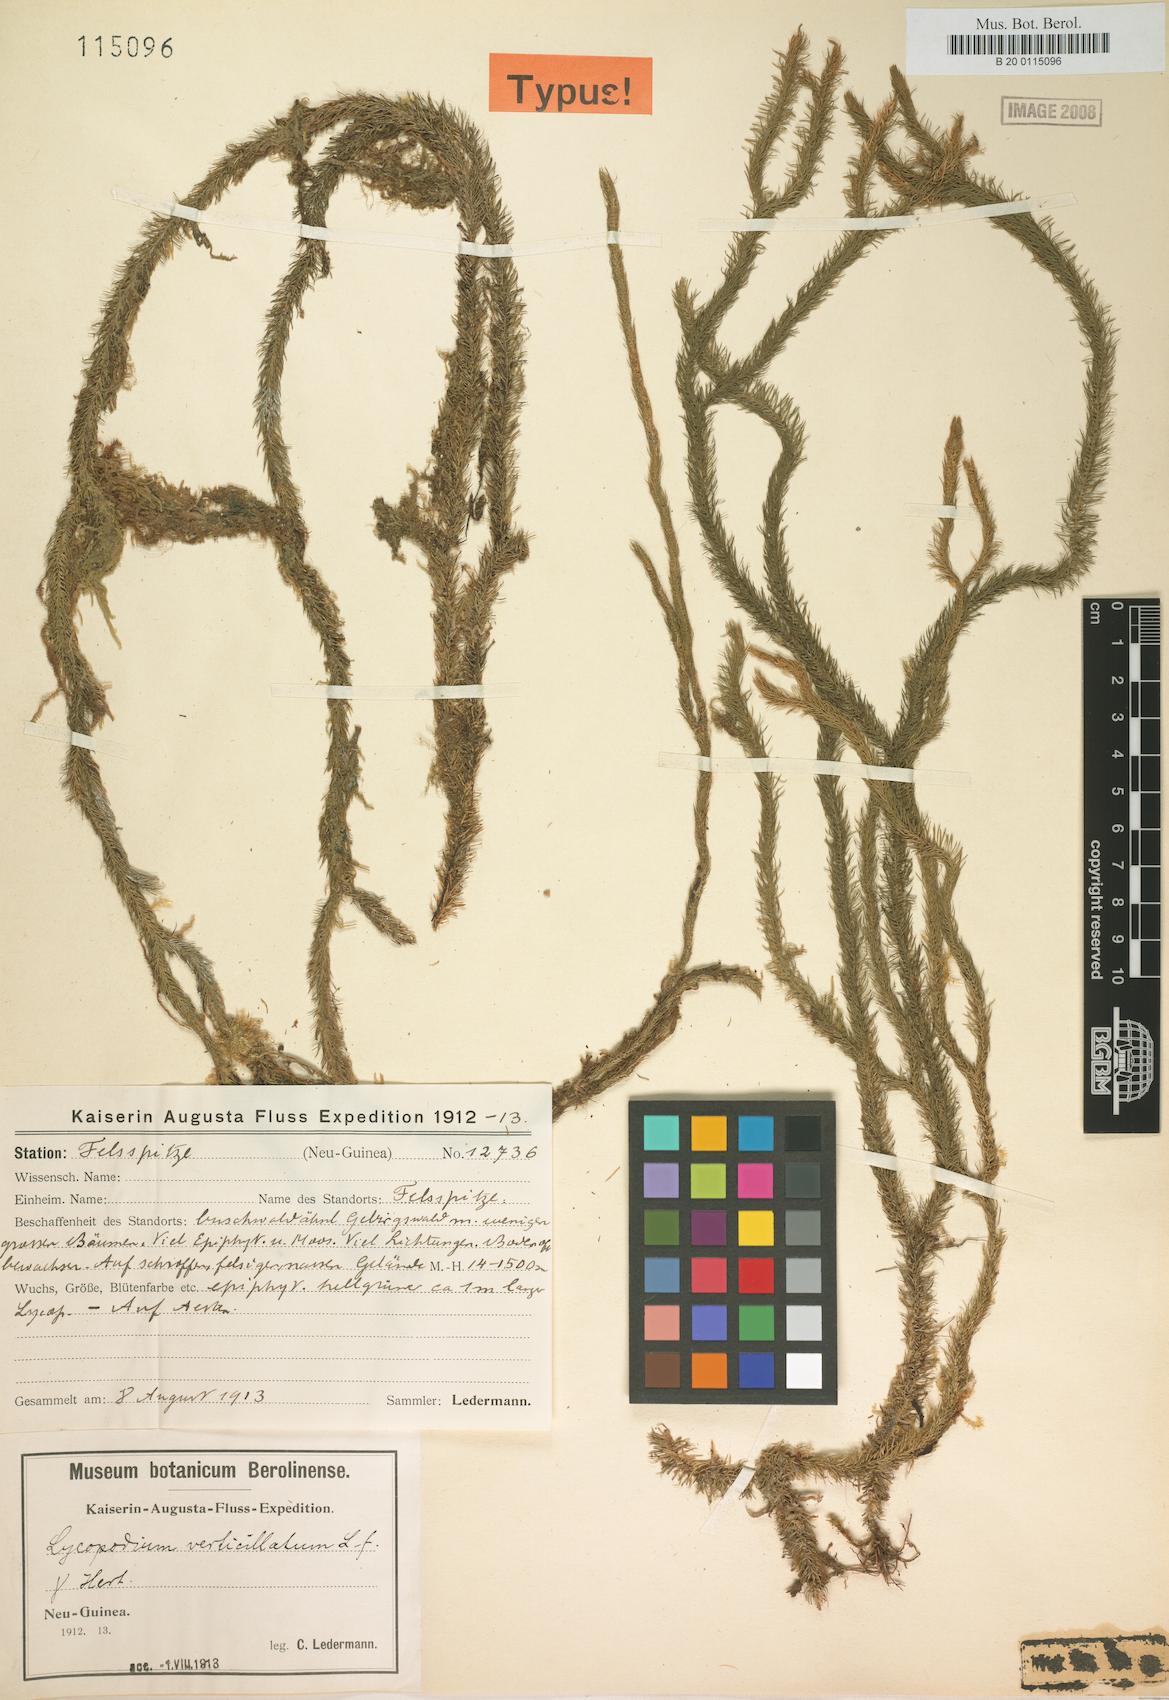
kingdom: Plantae
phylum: Tracheophyta
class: Lycopodiopsida
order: Lycopodiales
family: Lycopodiaceae
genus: Phlegmariurus
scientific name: Phlegmariurus verticillatus
